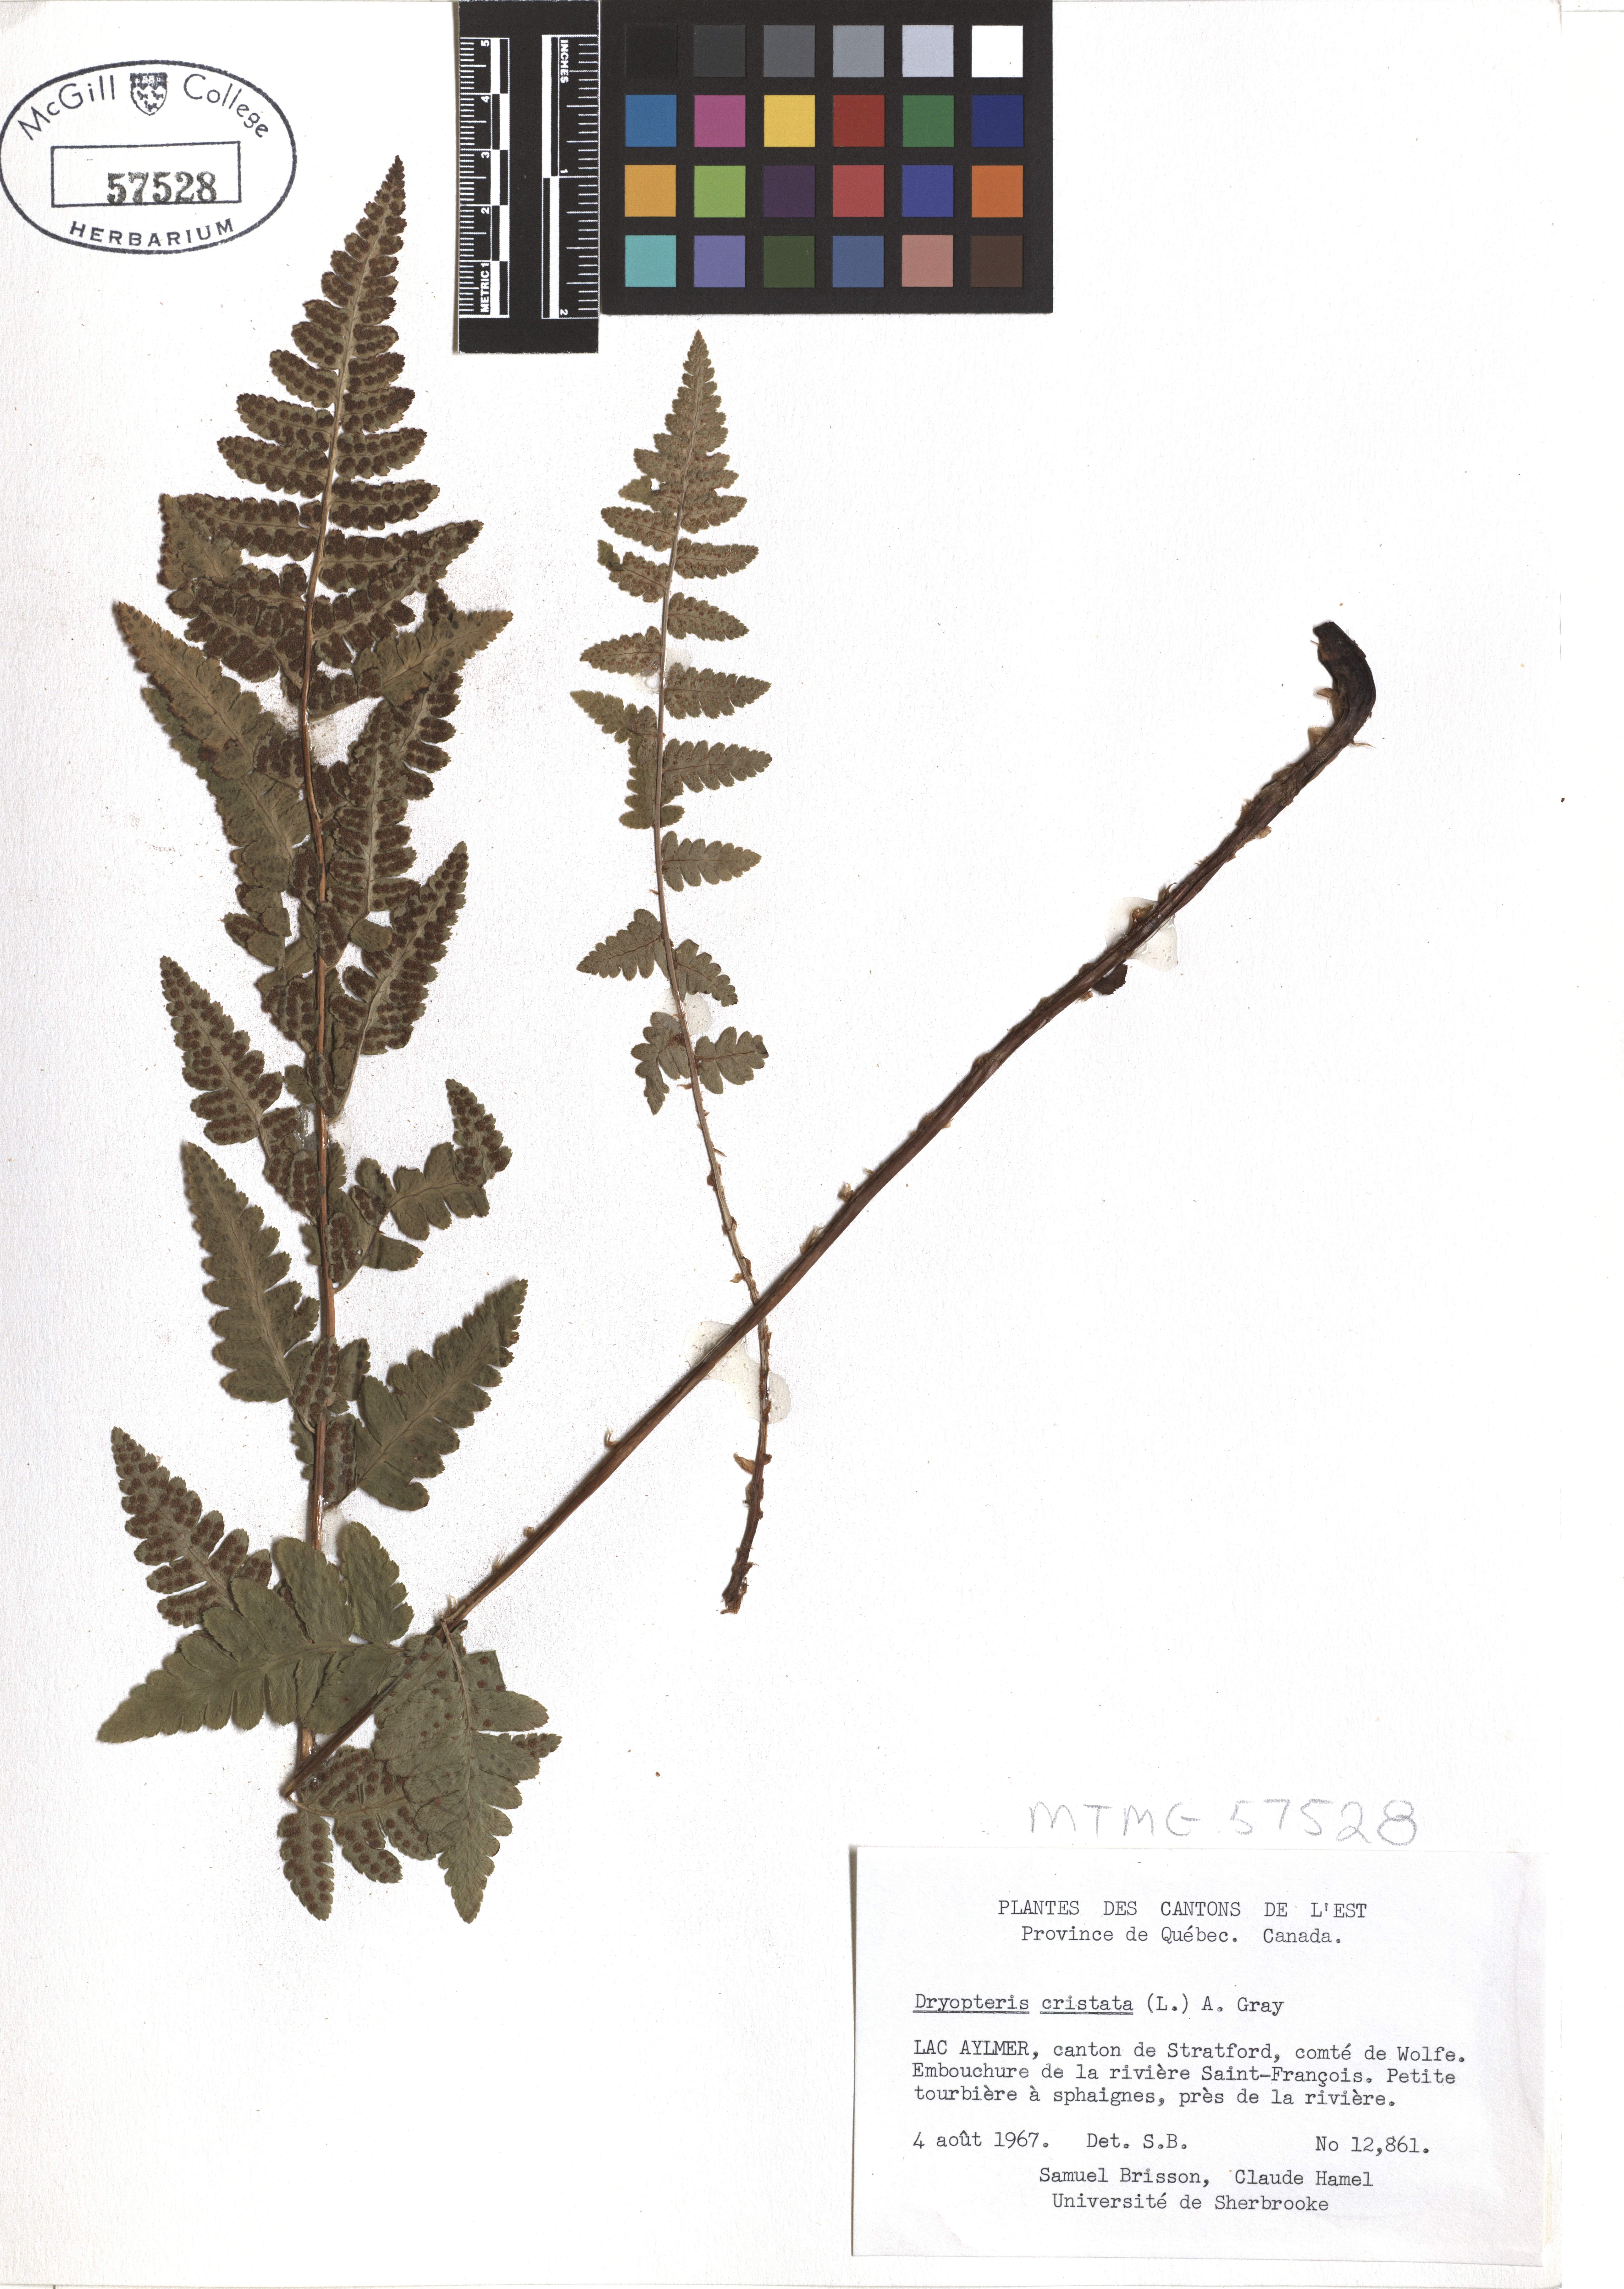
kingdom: Plantae
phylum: Tracheophyta
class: Polypodiopsida
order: Polypodiales
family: Dryopteridaceae
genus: Dryopteris
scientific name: Dryopteris cristata
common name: Crested wood fern
